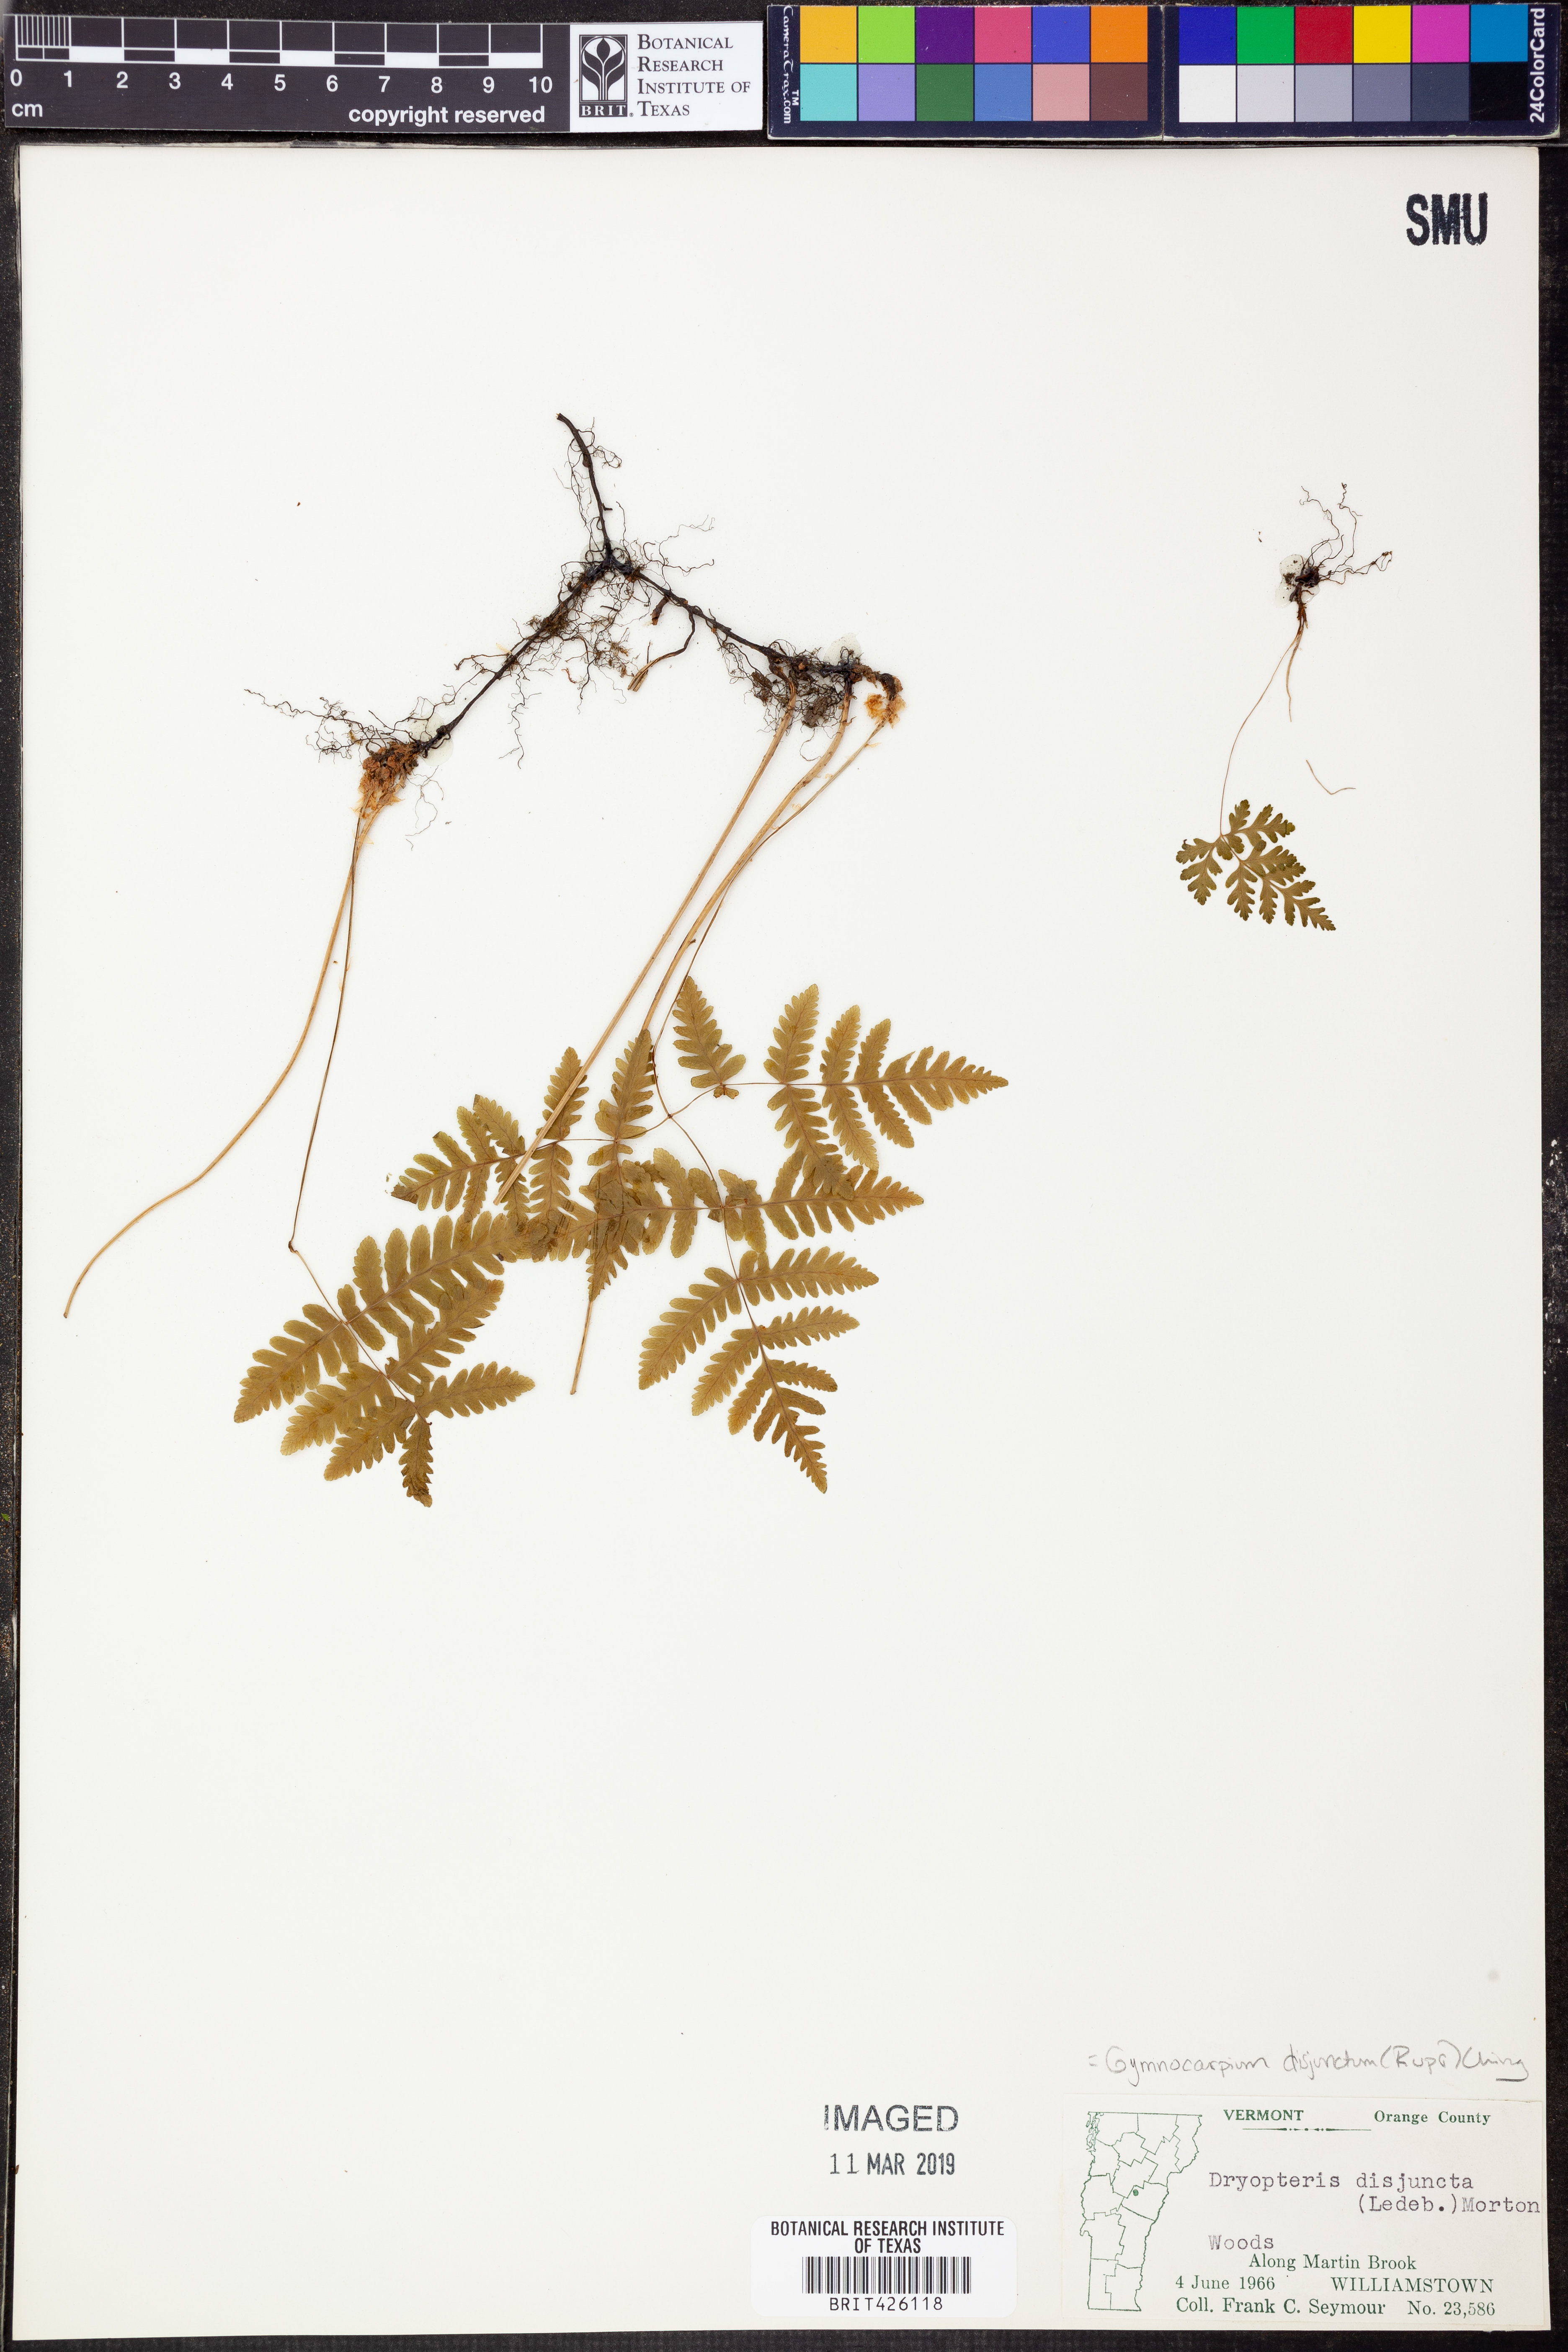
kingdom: Plantae
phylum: Tracheophyta
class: Polypodiopsida
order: Polypodiales
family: Cystopteridaceae
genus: Gymnocarpium
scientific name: Gymnocarpium dryopteris
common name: Oak fern
